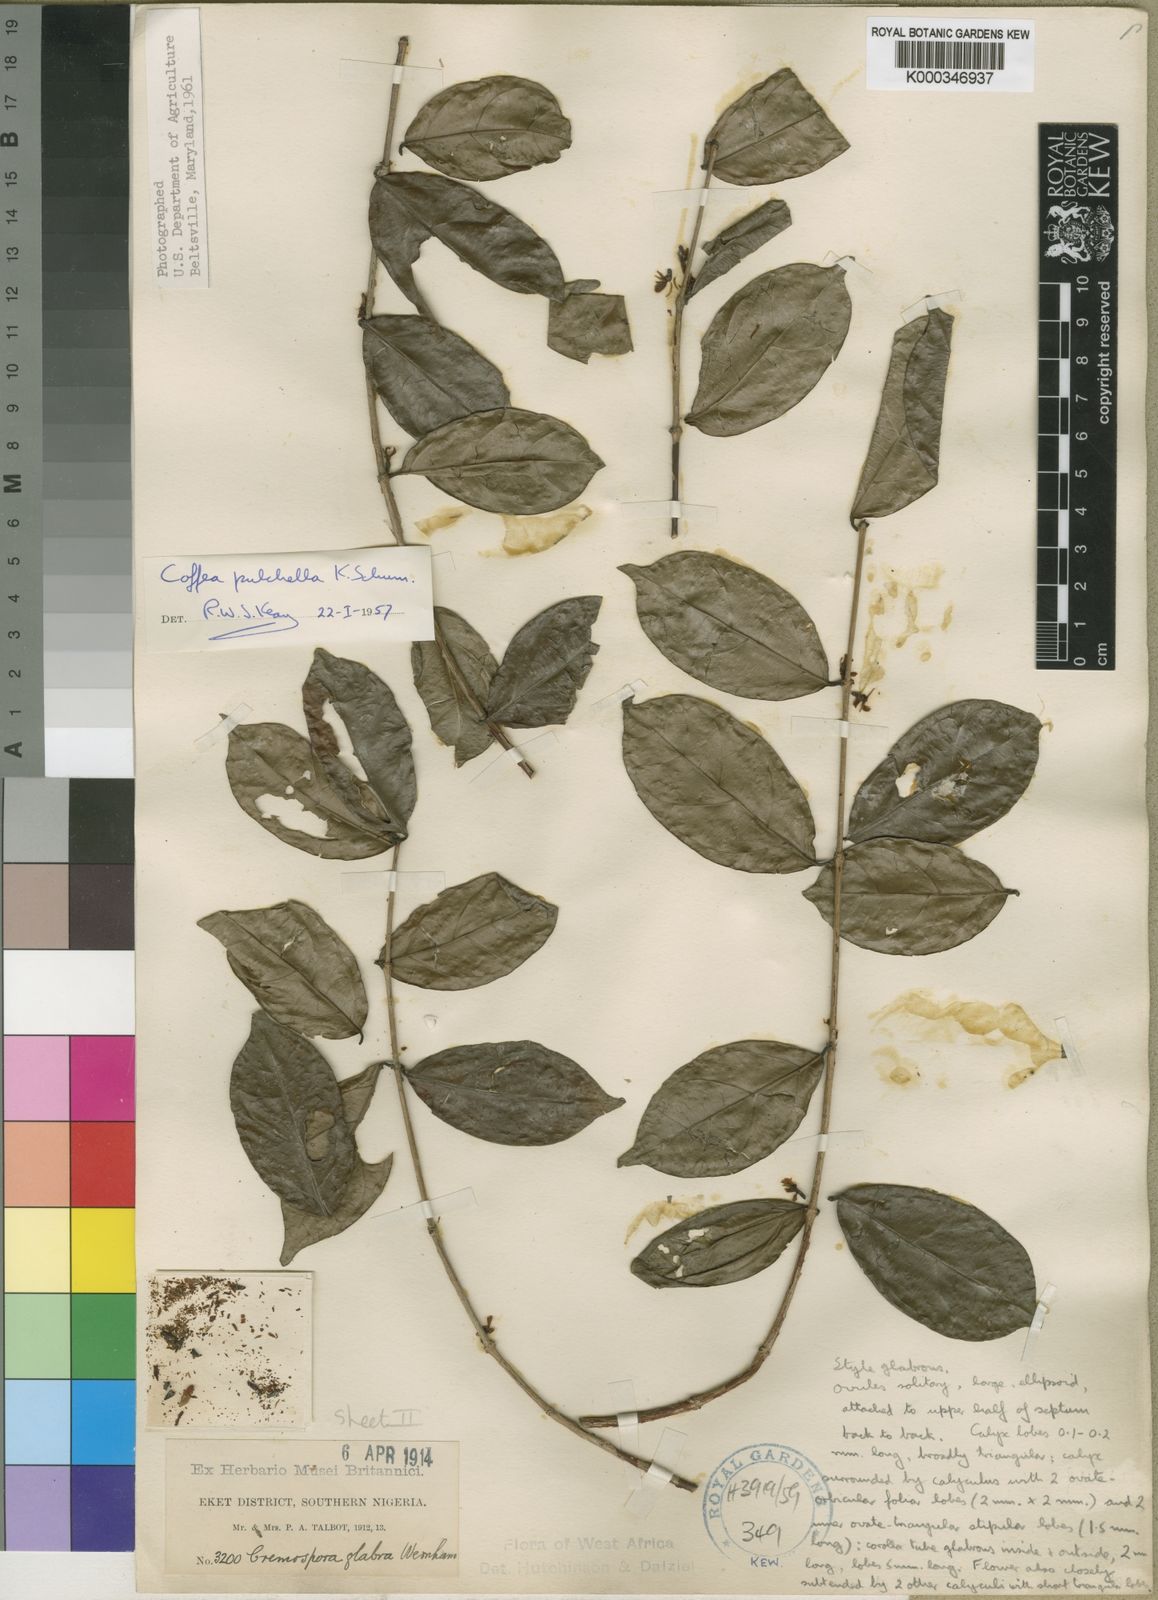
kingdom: Plantae
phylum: Tracheophyta
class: Magnoliopsida
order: Gentianales
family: Rubiaceae
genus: Argocoffeopsis
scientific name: Argocoffeopsis pulchella
